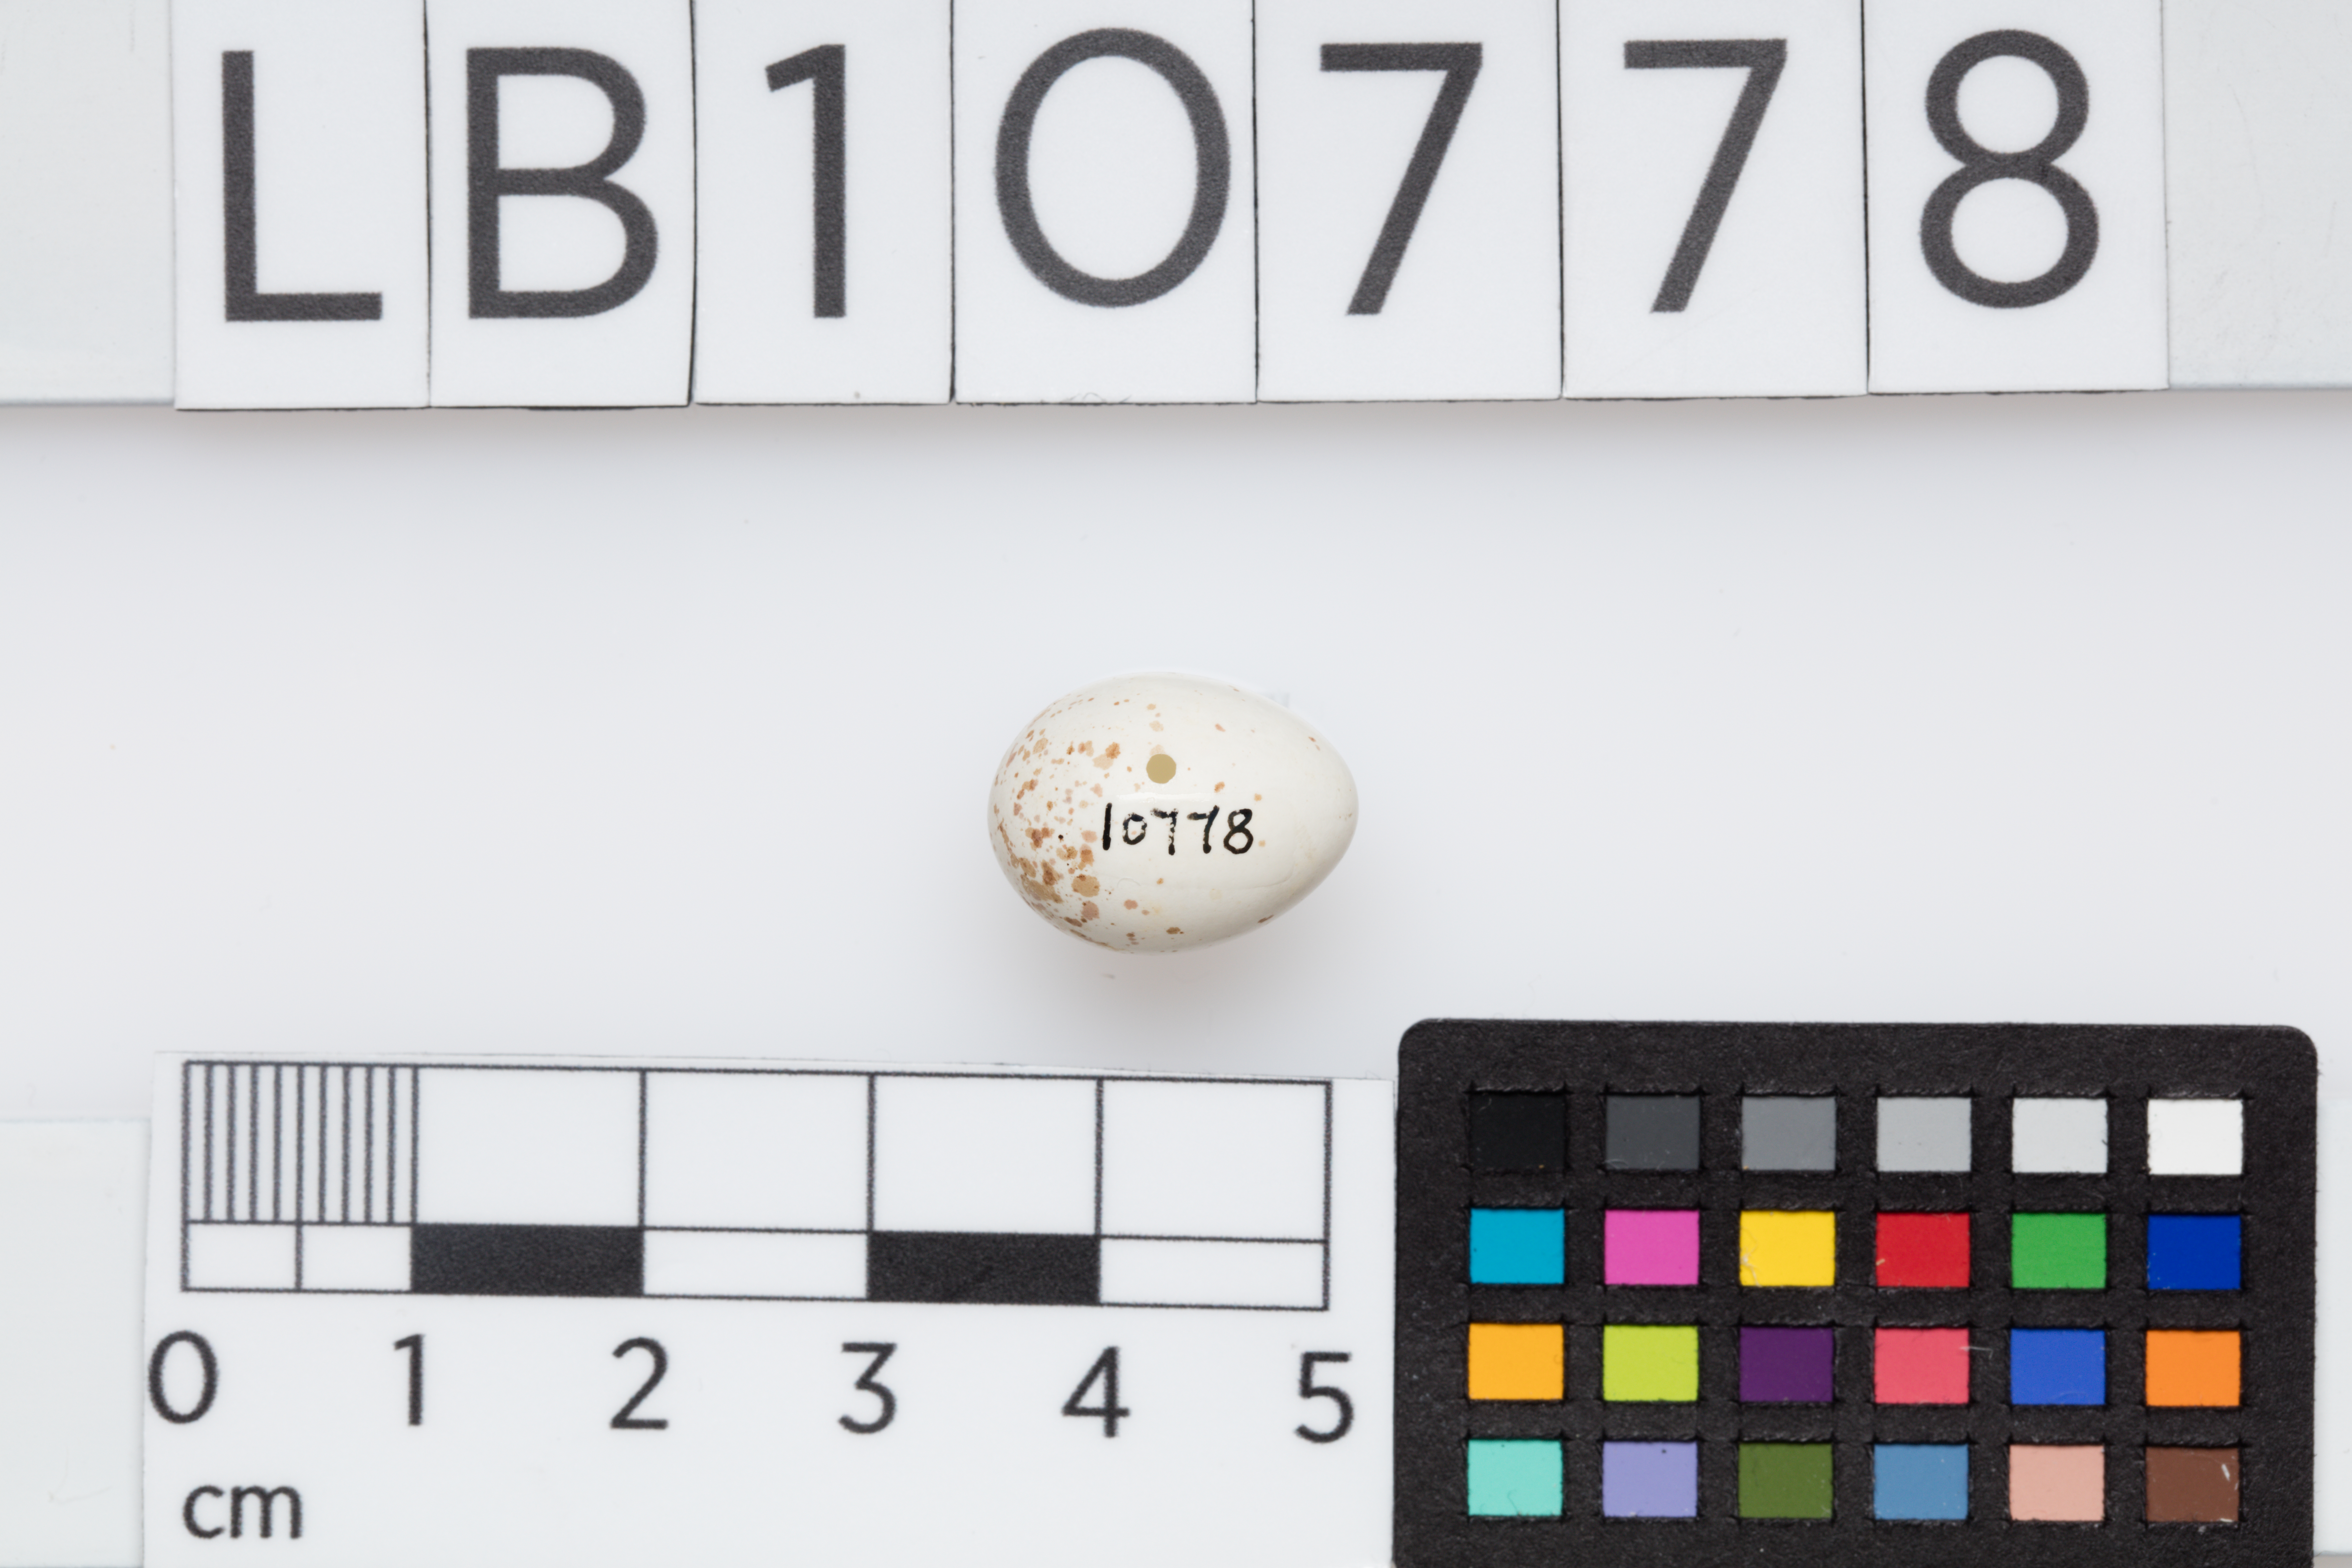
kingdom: Animalia
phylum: Chordata
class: Aves
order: Passeriformes
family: Paridae
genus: Cyanistes
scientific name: Cyanistes caeruleus
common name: Eurasian blue tit
